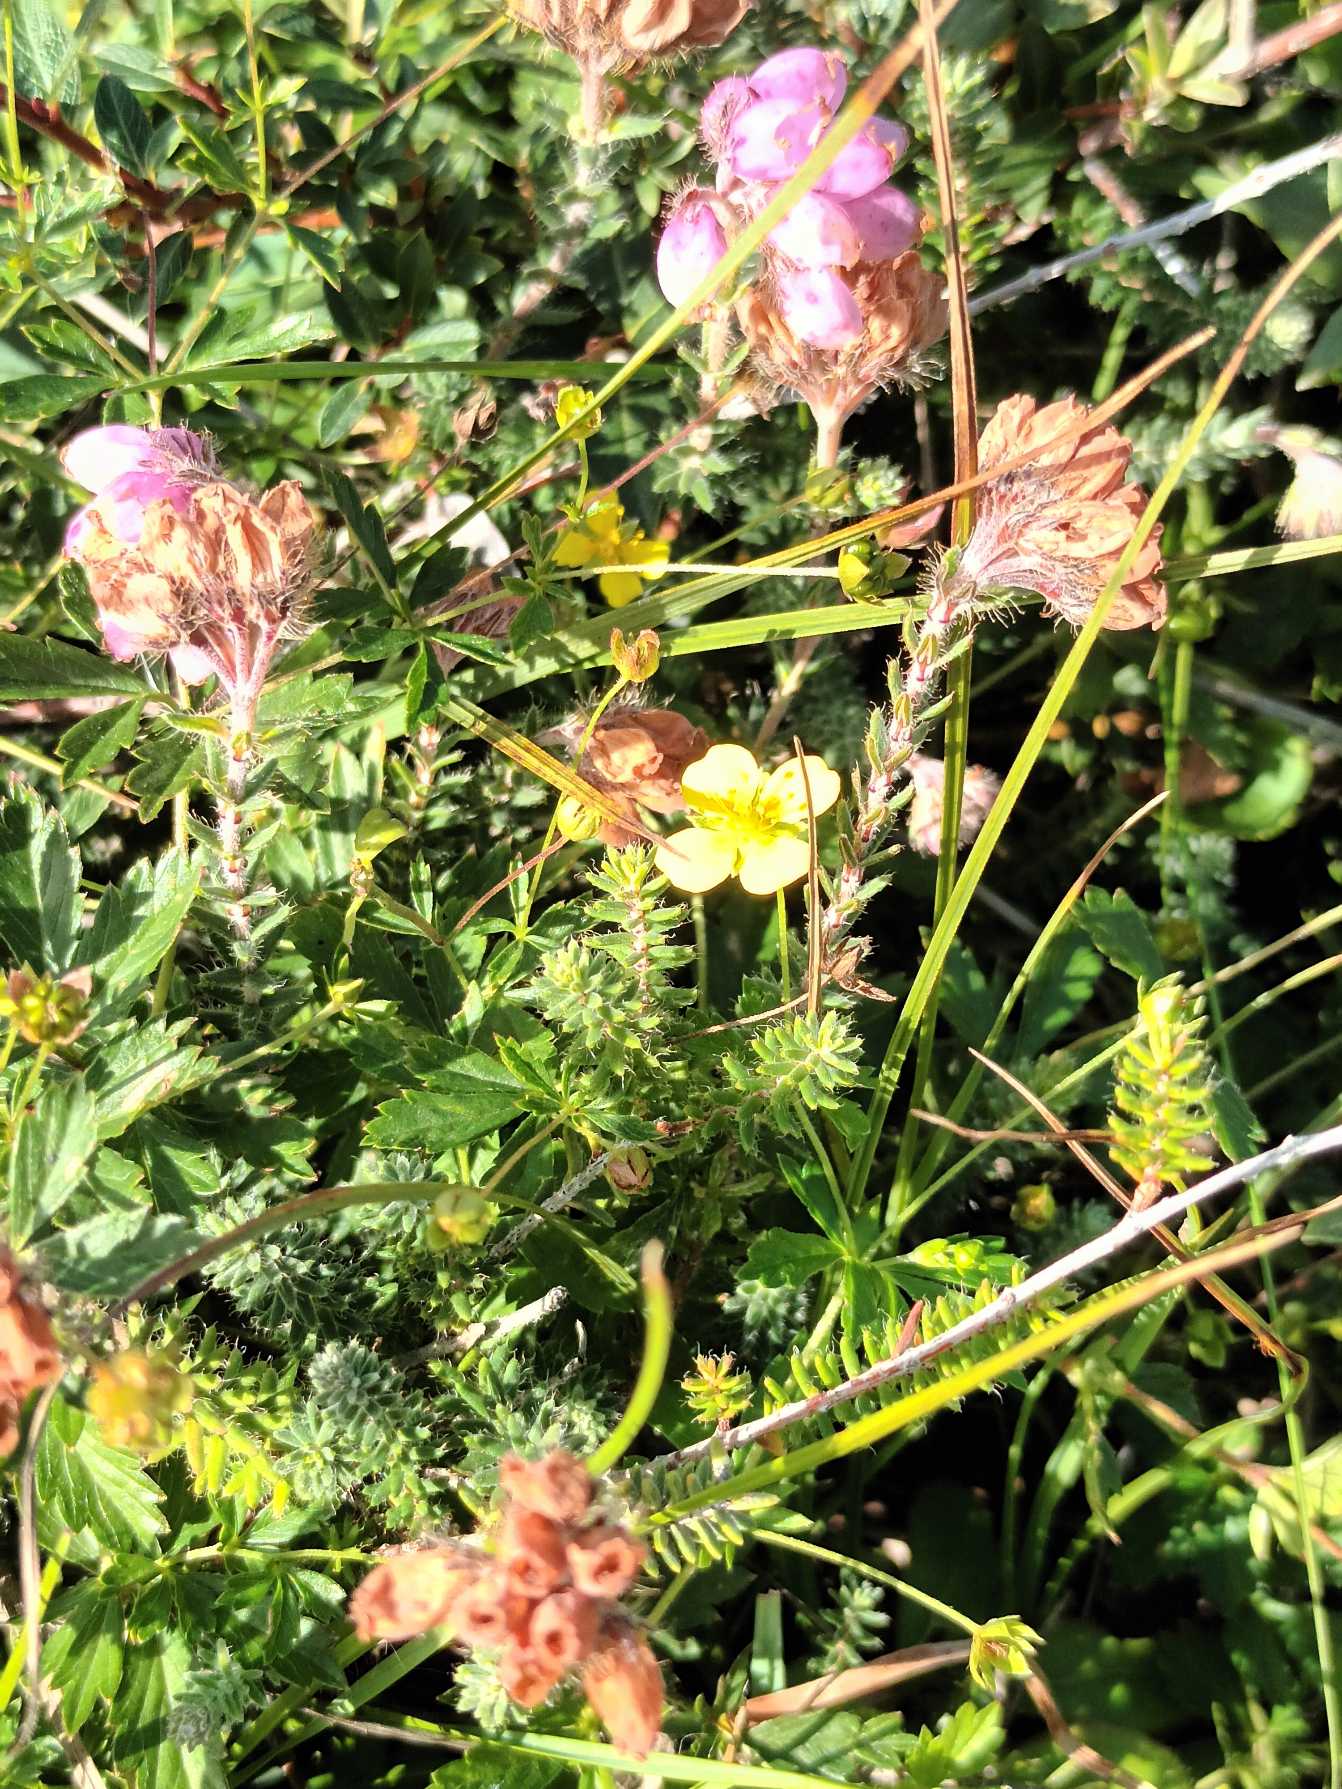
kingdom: Plantae
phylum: Tracheophyta
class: Magnoliopsida
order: Ericales
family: Ericaceae
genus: Erica
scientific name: Erica tetralix
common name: Klokkelyng
